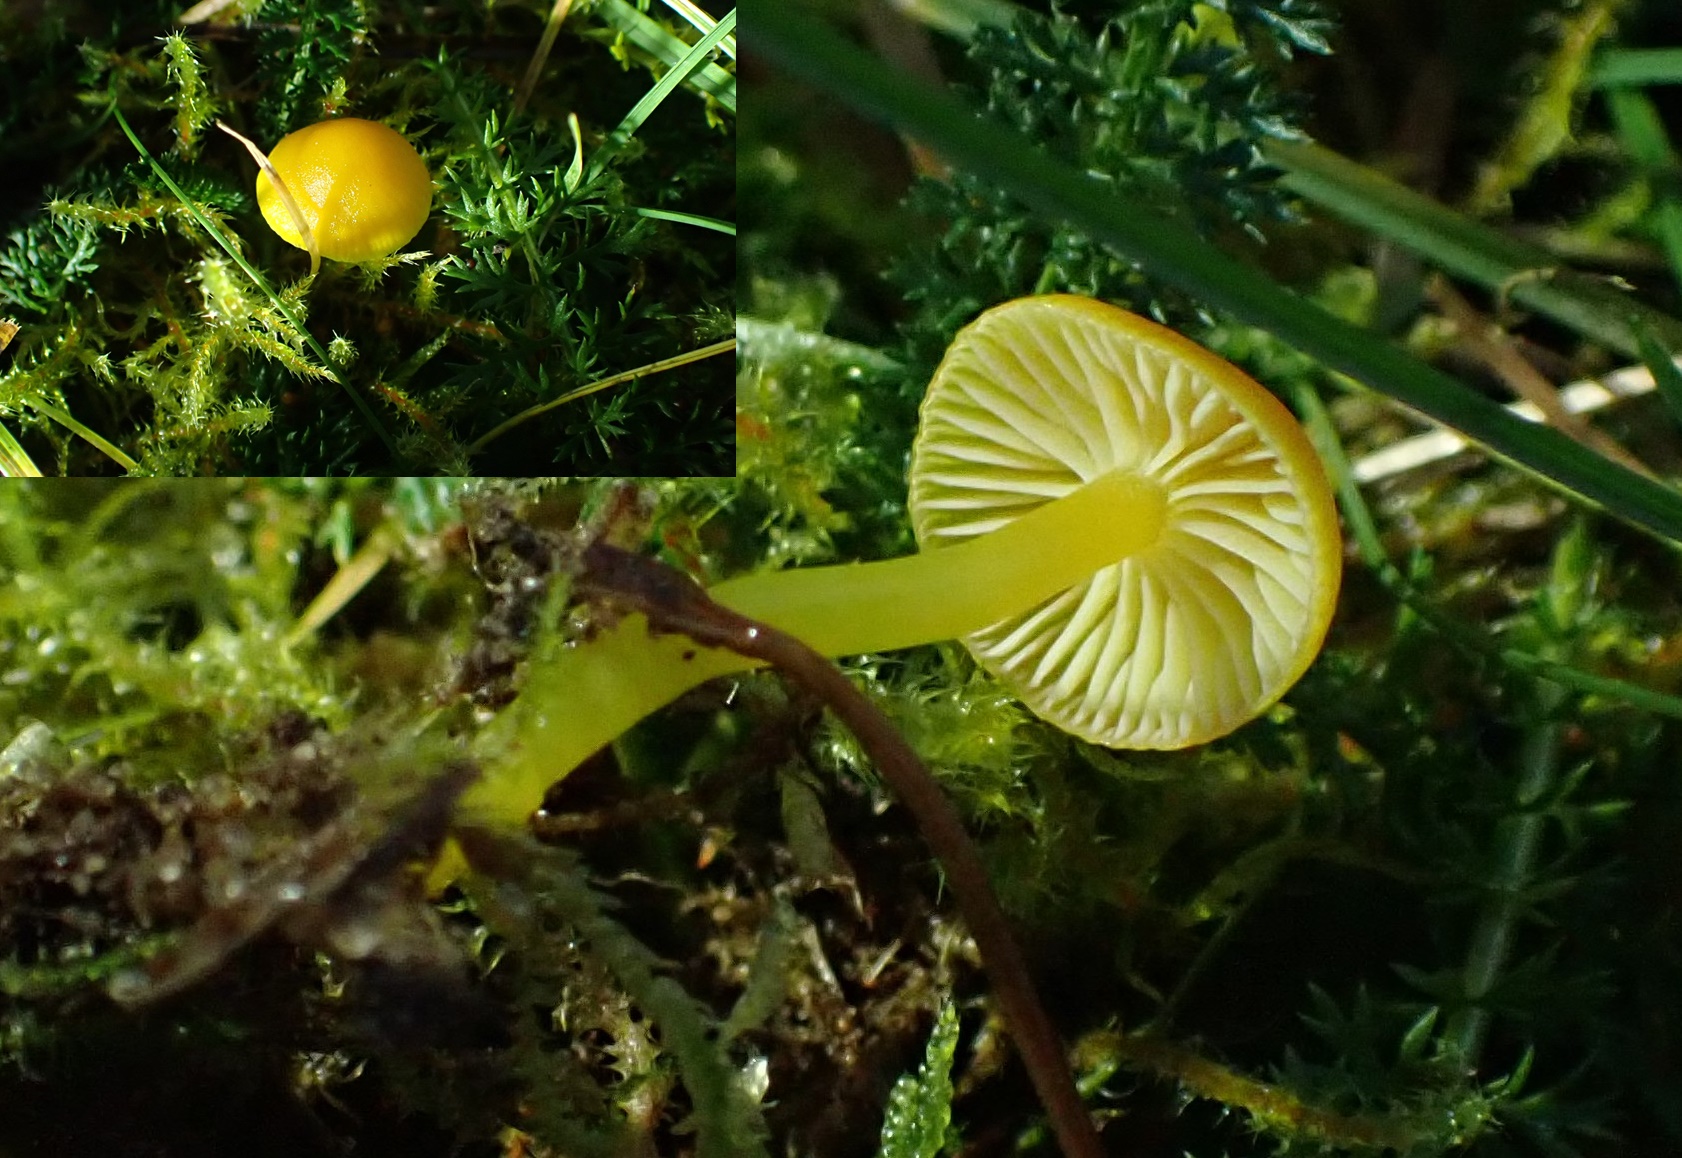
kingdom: Fungi
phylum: Basidiomycota
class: Agaricomycetes
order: Agaricales
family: Hygrophoraceae
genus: Hygrocybe
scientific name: Hygrocybe ceracea
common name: voksgul vokshat
